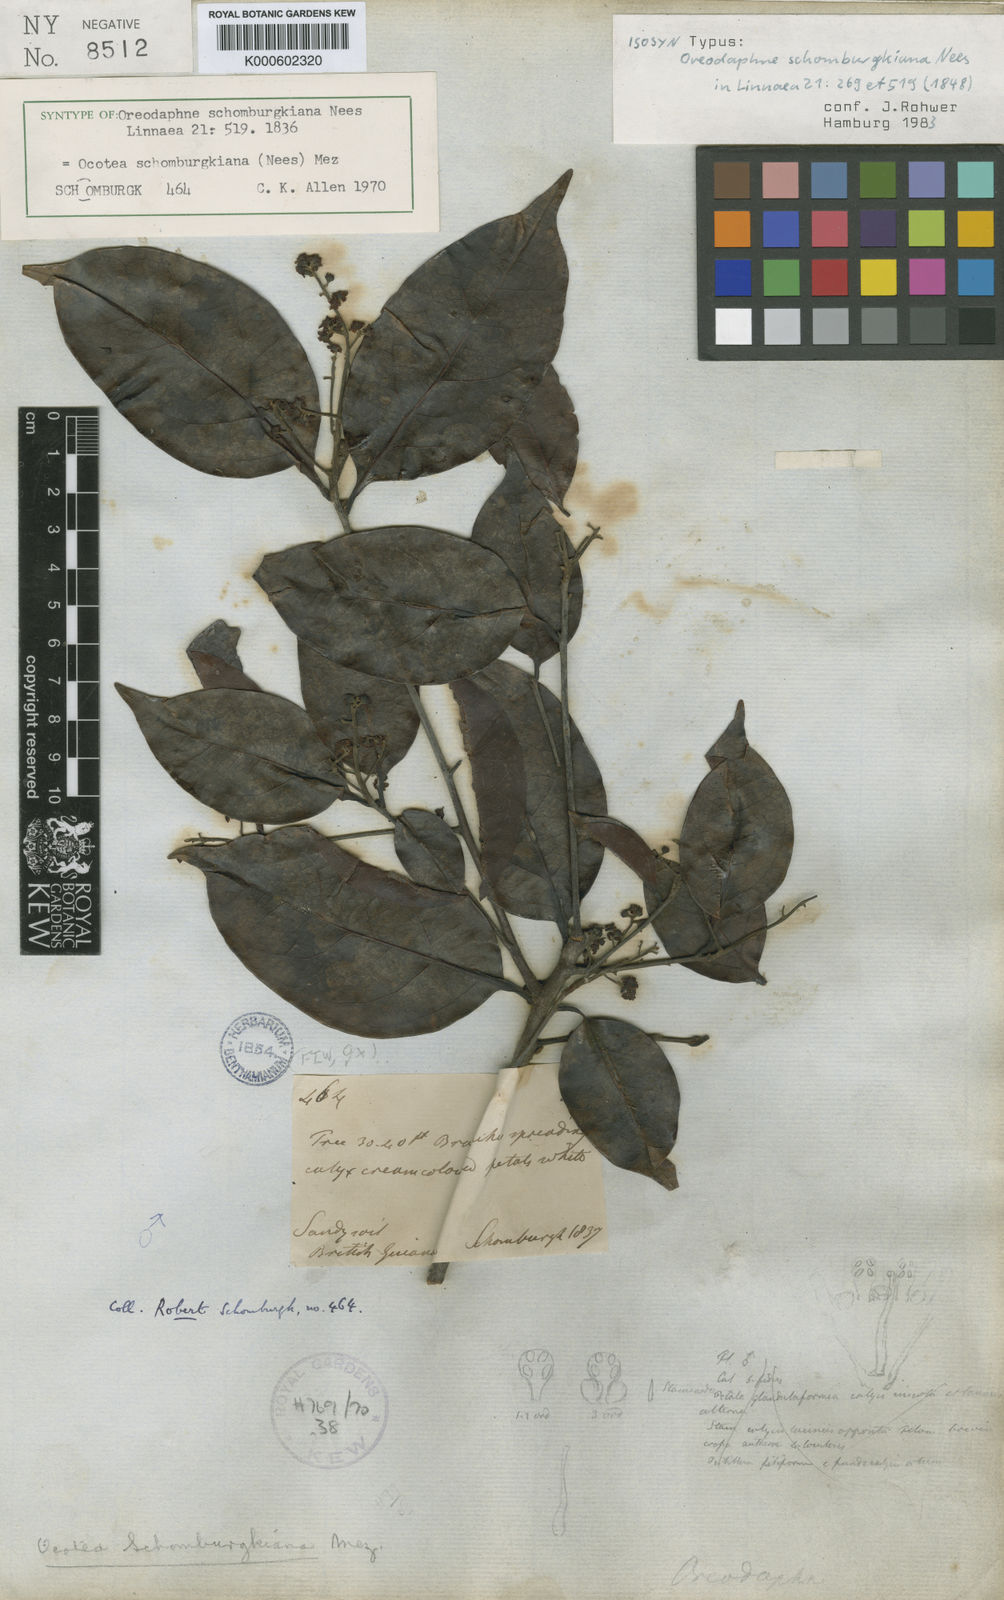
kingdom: Plantae
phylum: Tracheophyta
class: Magnoliopsida
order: Laurales
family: Lauraceae
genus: Ocotea
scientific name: Ocotea schomburgkiana
